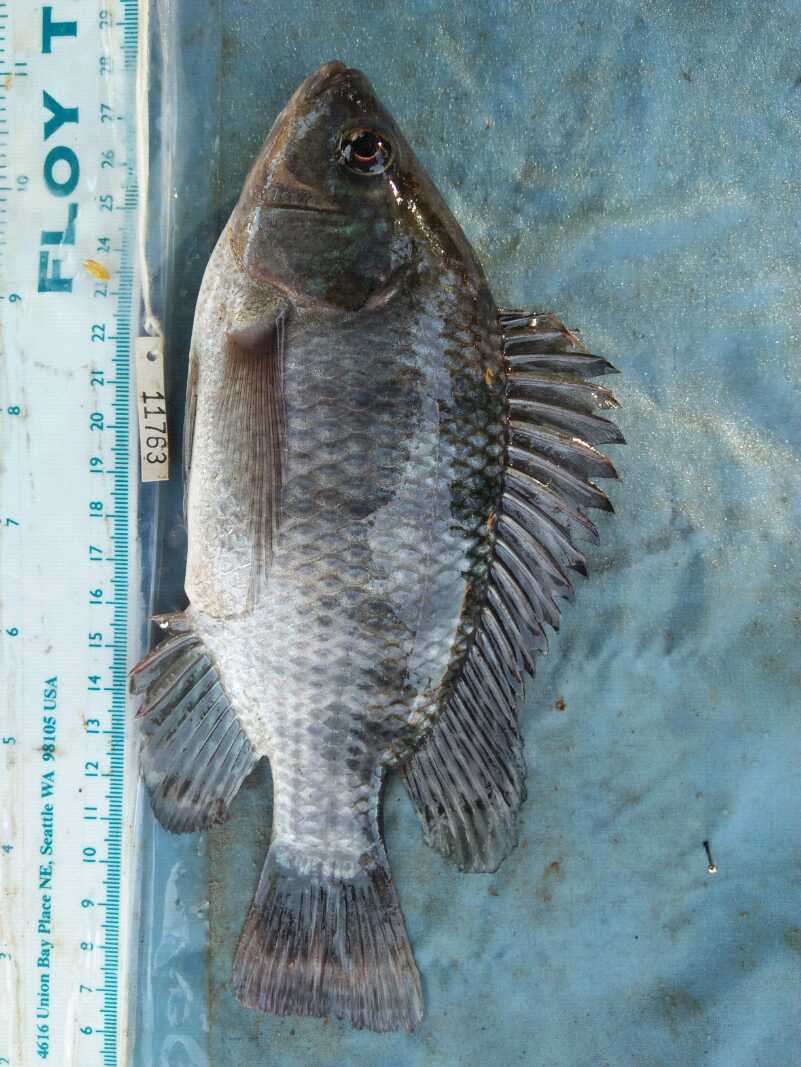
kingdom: Animalia
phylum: Chordata
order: Perciformes
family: Cichlidae
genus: Oreochromis
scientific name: Oreochromis niloticus
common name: Nile tilapia
